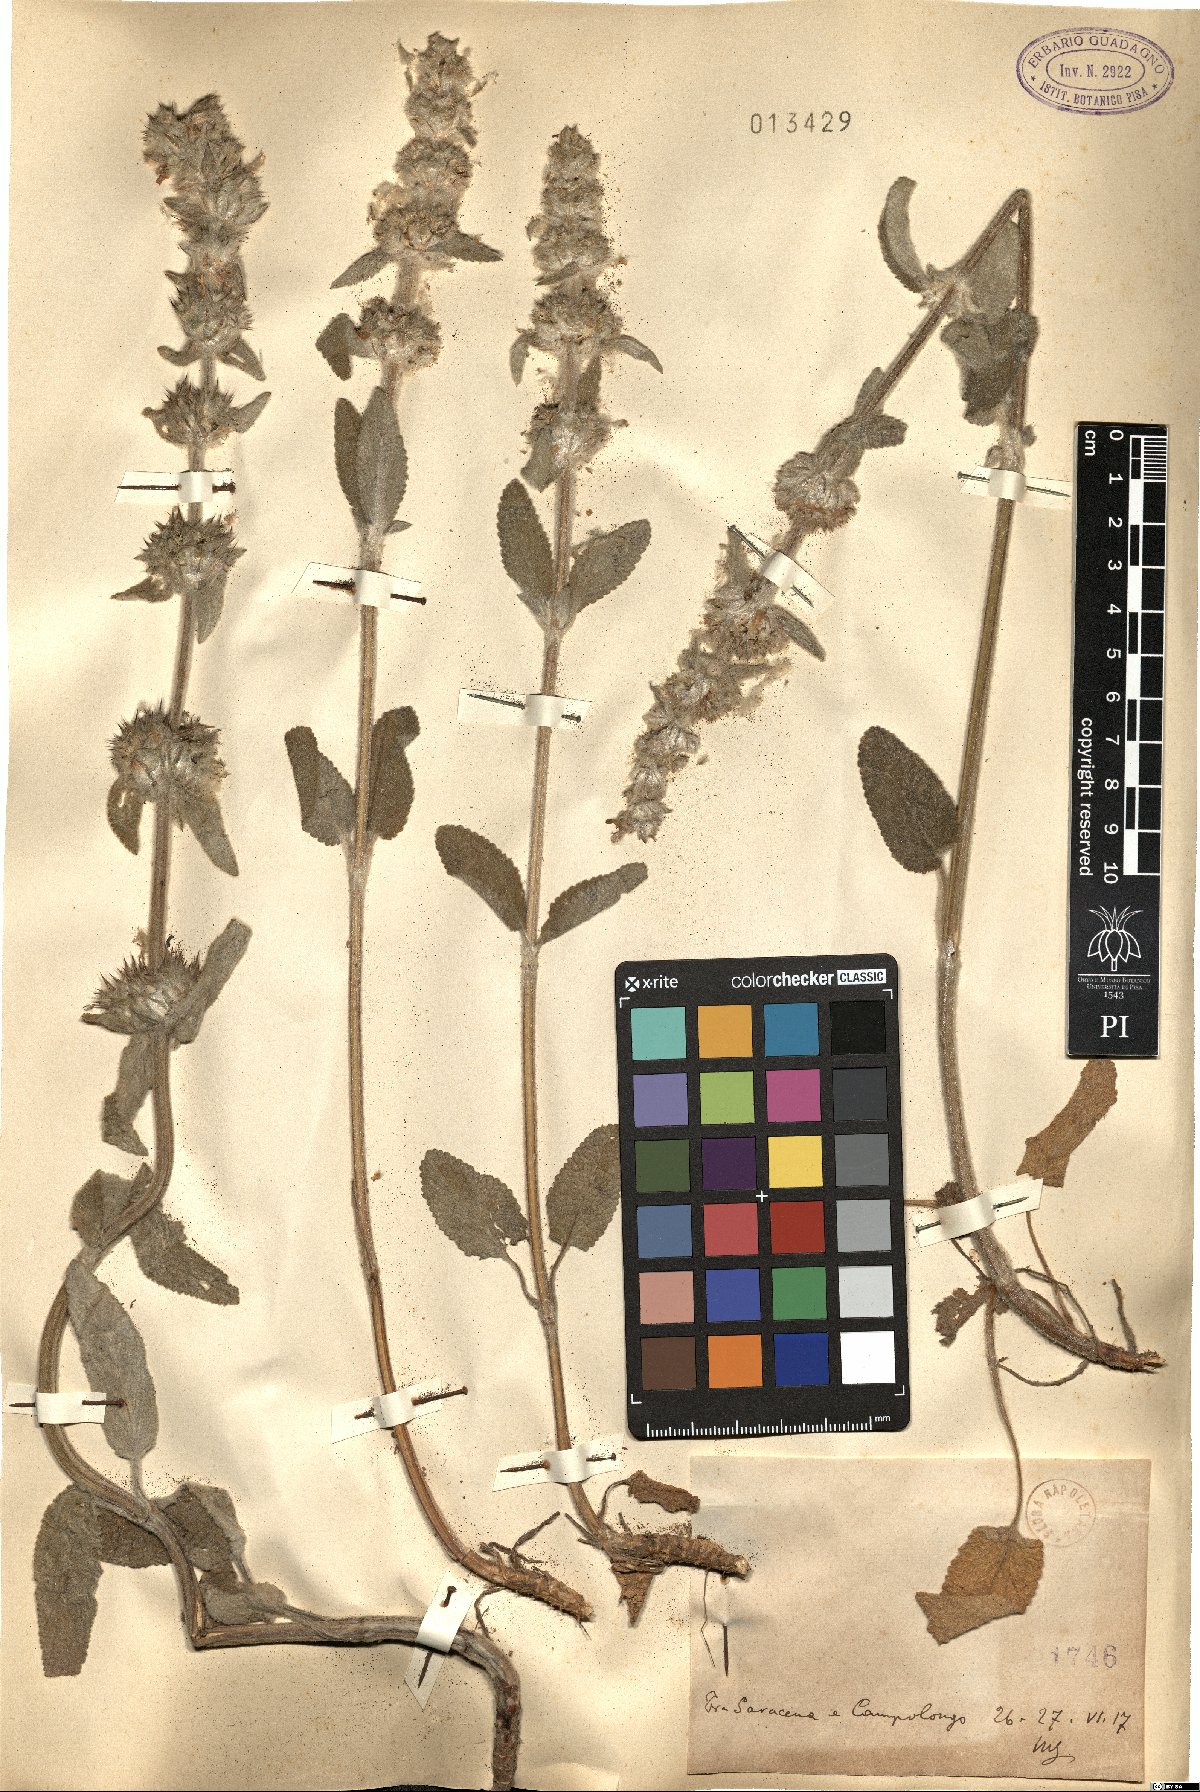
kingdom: Plantae
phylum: Tracheophyta
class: Magnoliopsida
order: Lamiales
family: Lamiaceae
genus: Stachys
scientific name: Stachys
